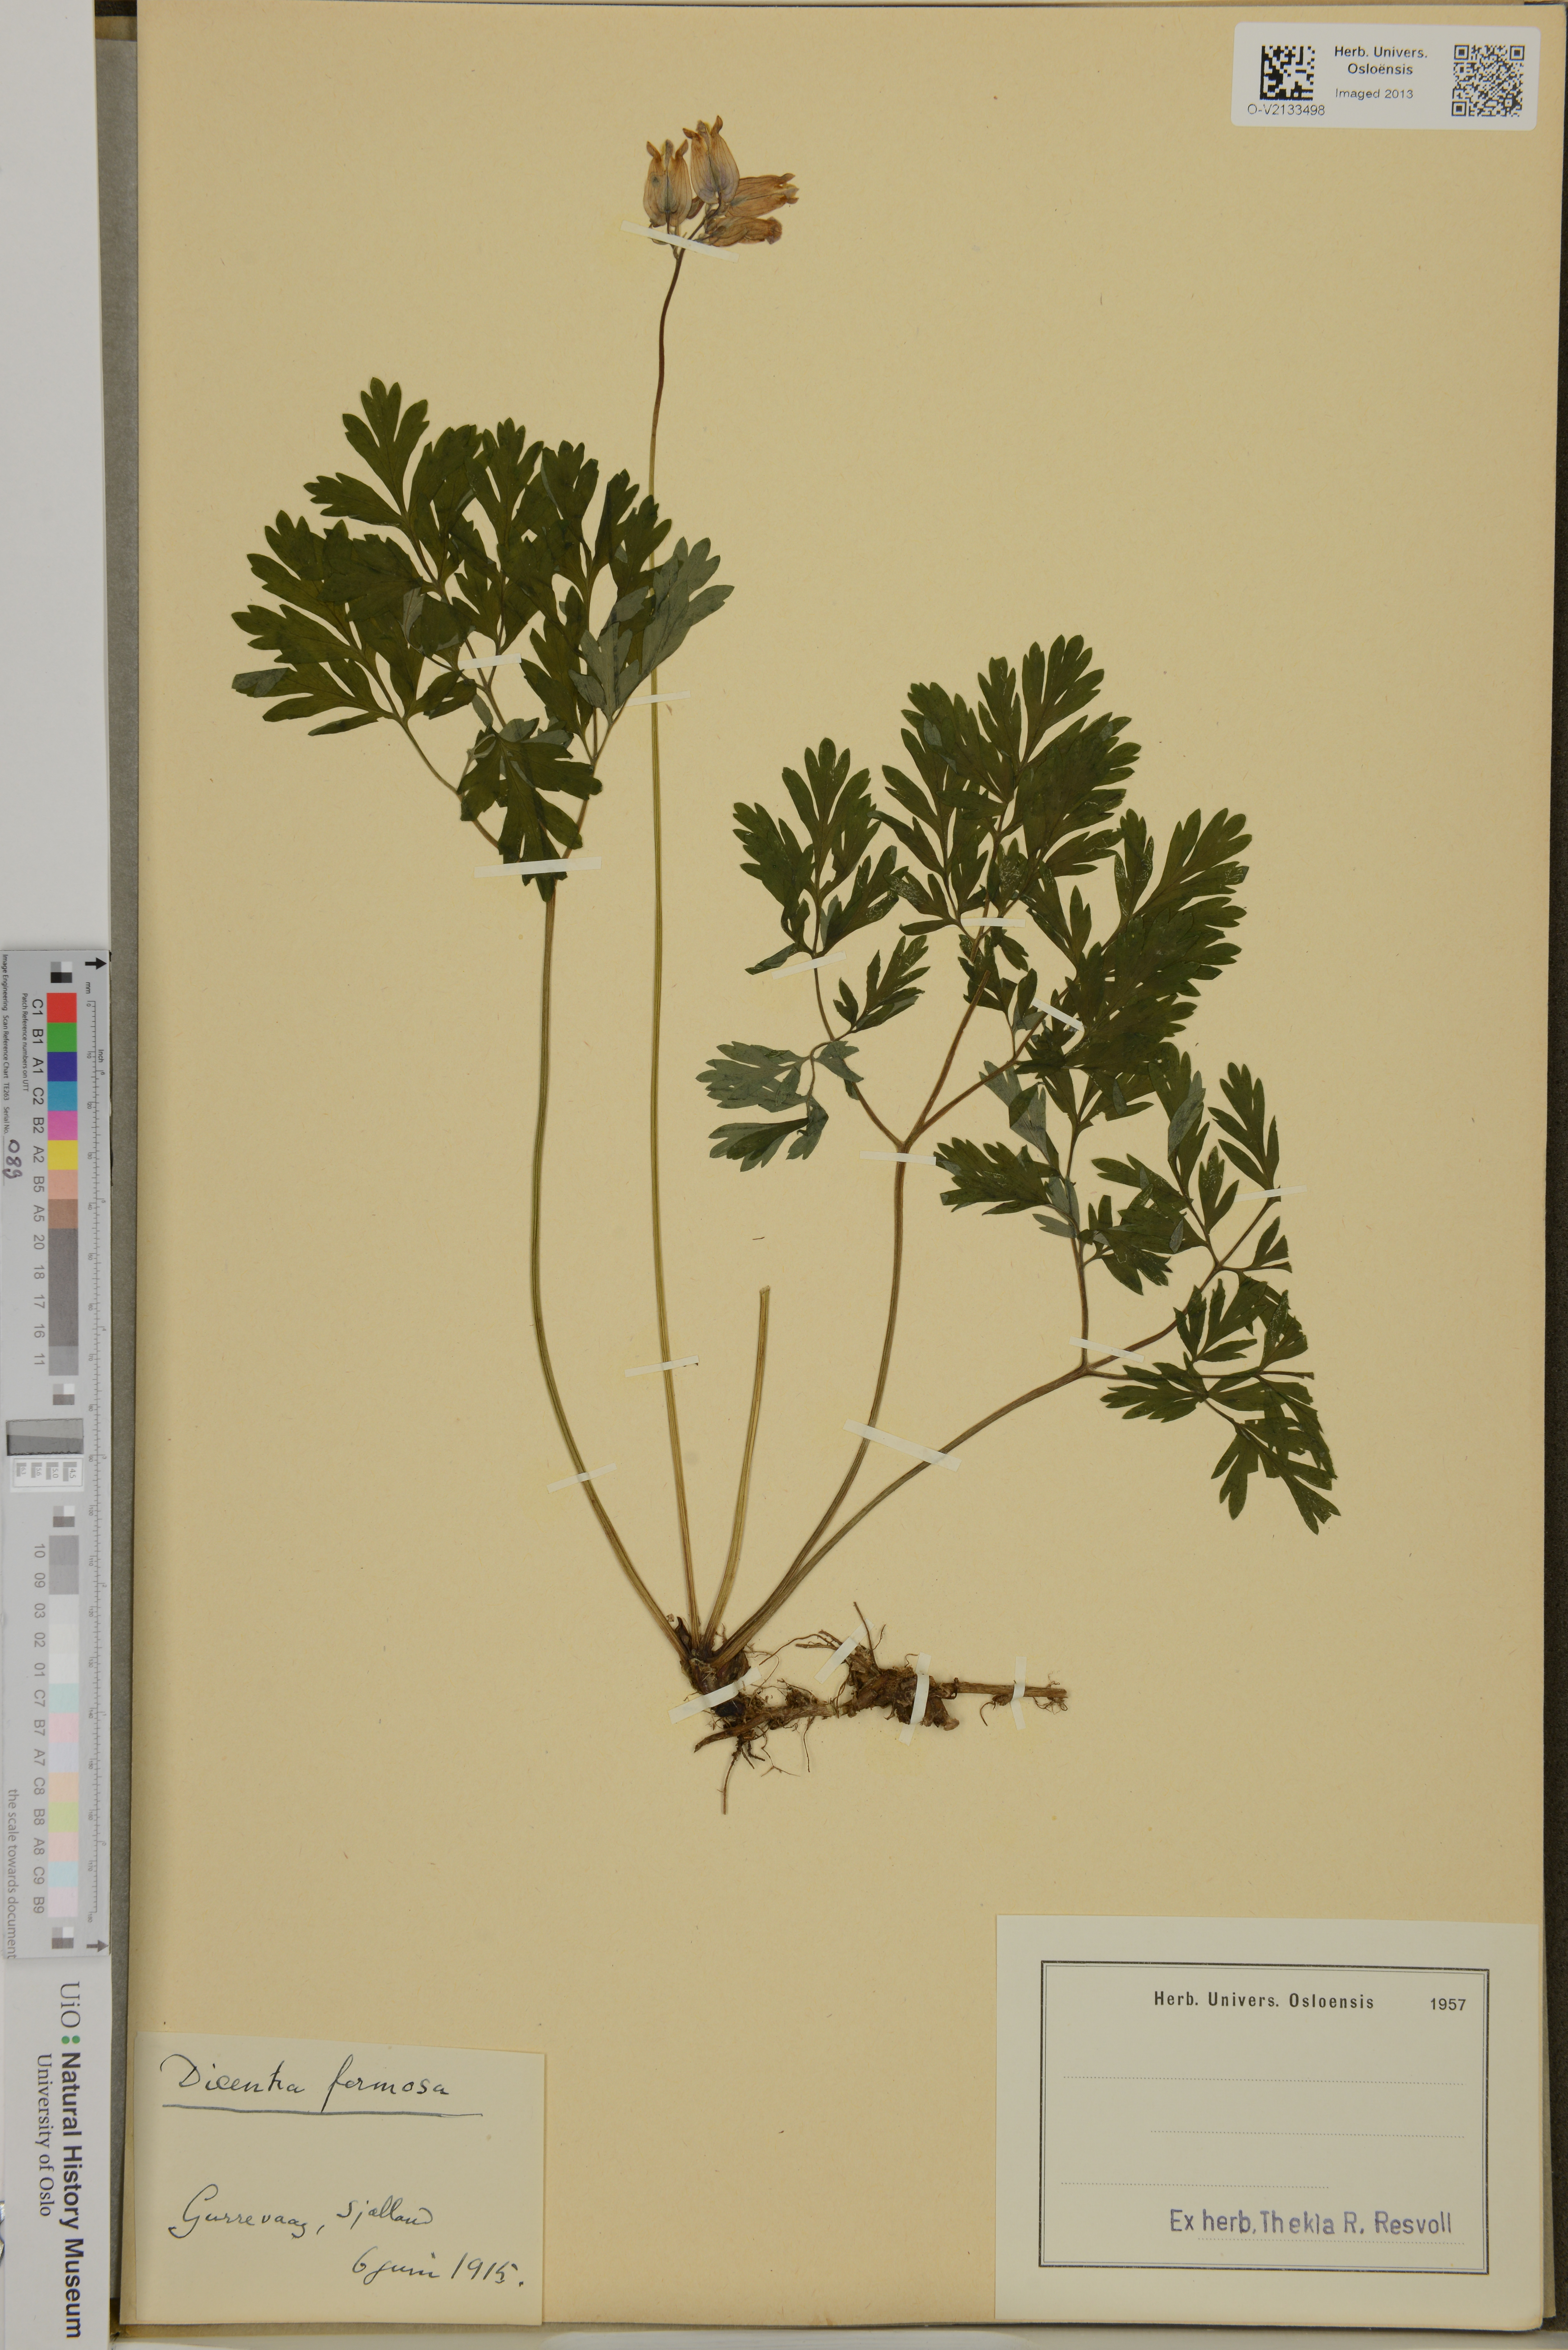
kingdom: Plantae
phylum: Tracheophyta
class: Magnoliopsida
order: Ranunculales
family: Papaveraceae
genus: Dicentra
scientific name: Dicentra formosa
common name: Bleeding-heart
